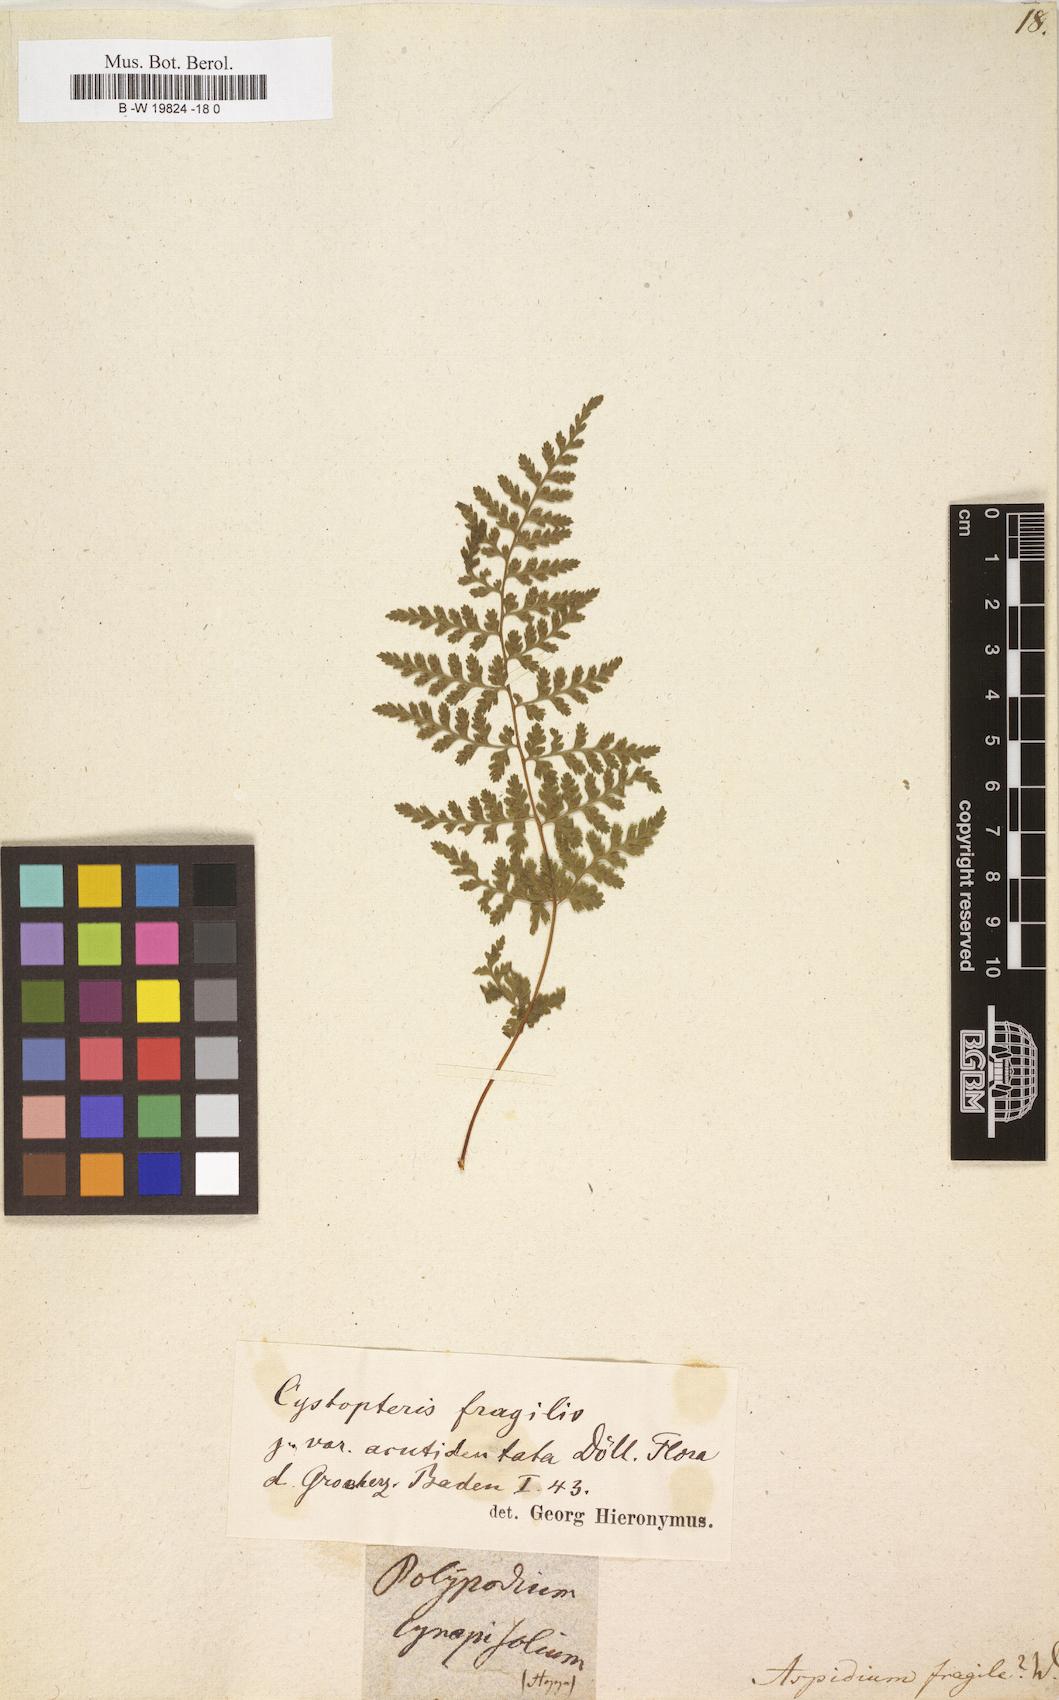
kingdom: Plantae
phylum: Tracheophyta
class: Polypodiopsida
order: Polypodiales
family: Cystopteridaceae
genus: Cystopteris
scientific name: Cystopteris fragilis
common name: Brittle bladder fern
